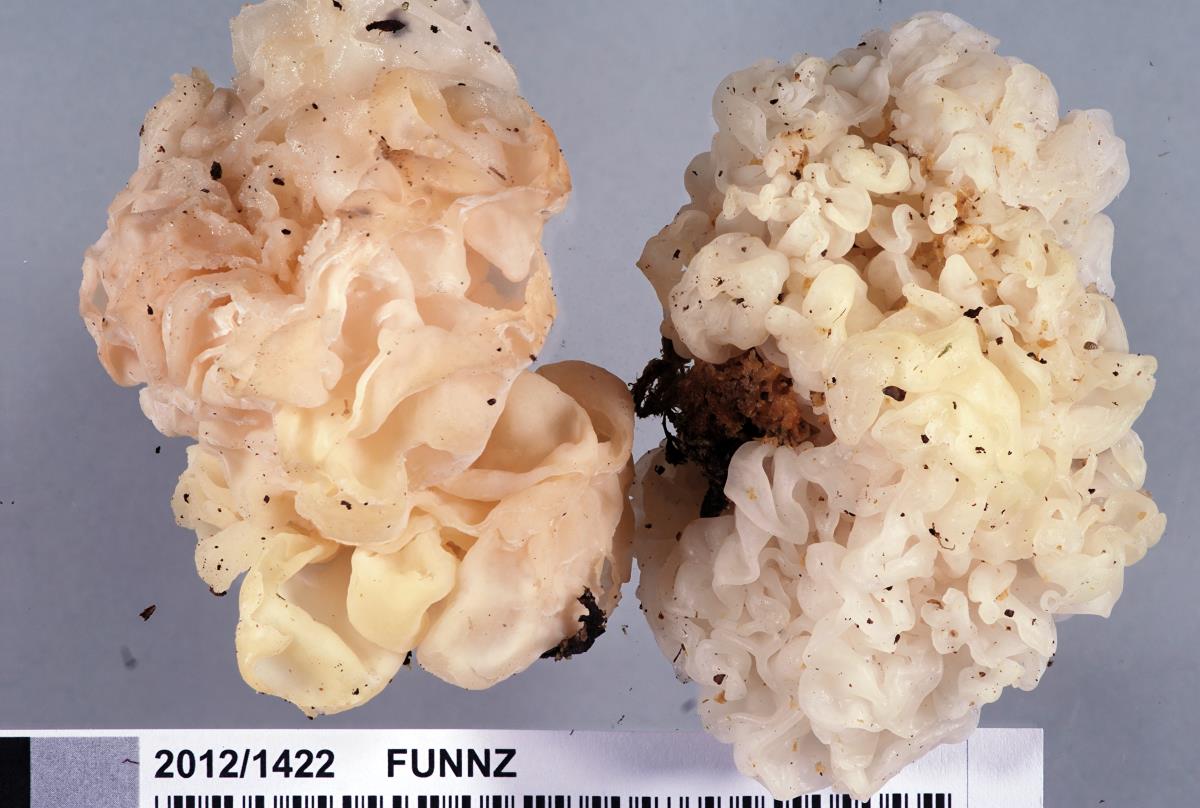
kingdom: Fungi
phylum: Basidiomycota
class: Tremellomycetes
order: Tremellales
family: Naemateliaceae
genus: Naematelia
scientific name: Naematelia aurantia
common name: Golden ear
